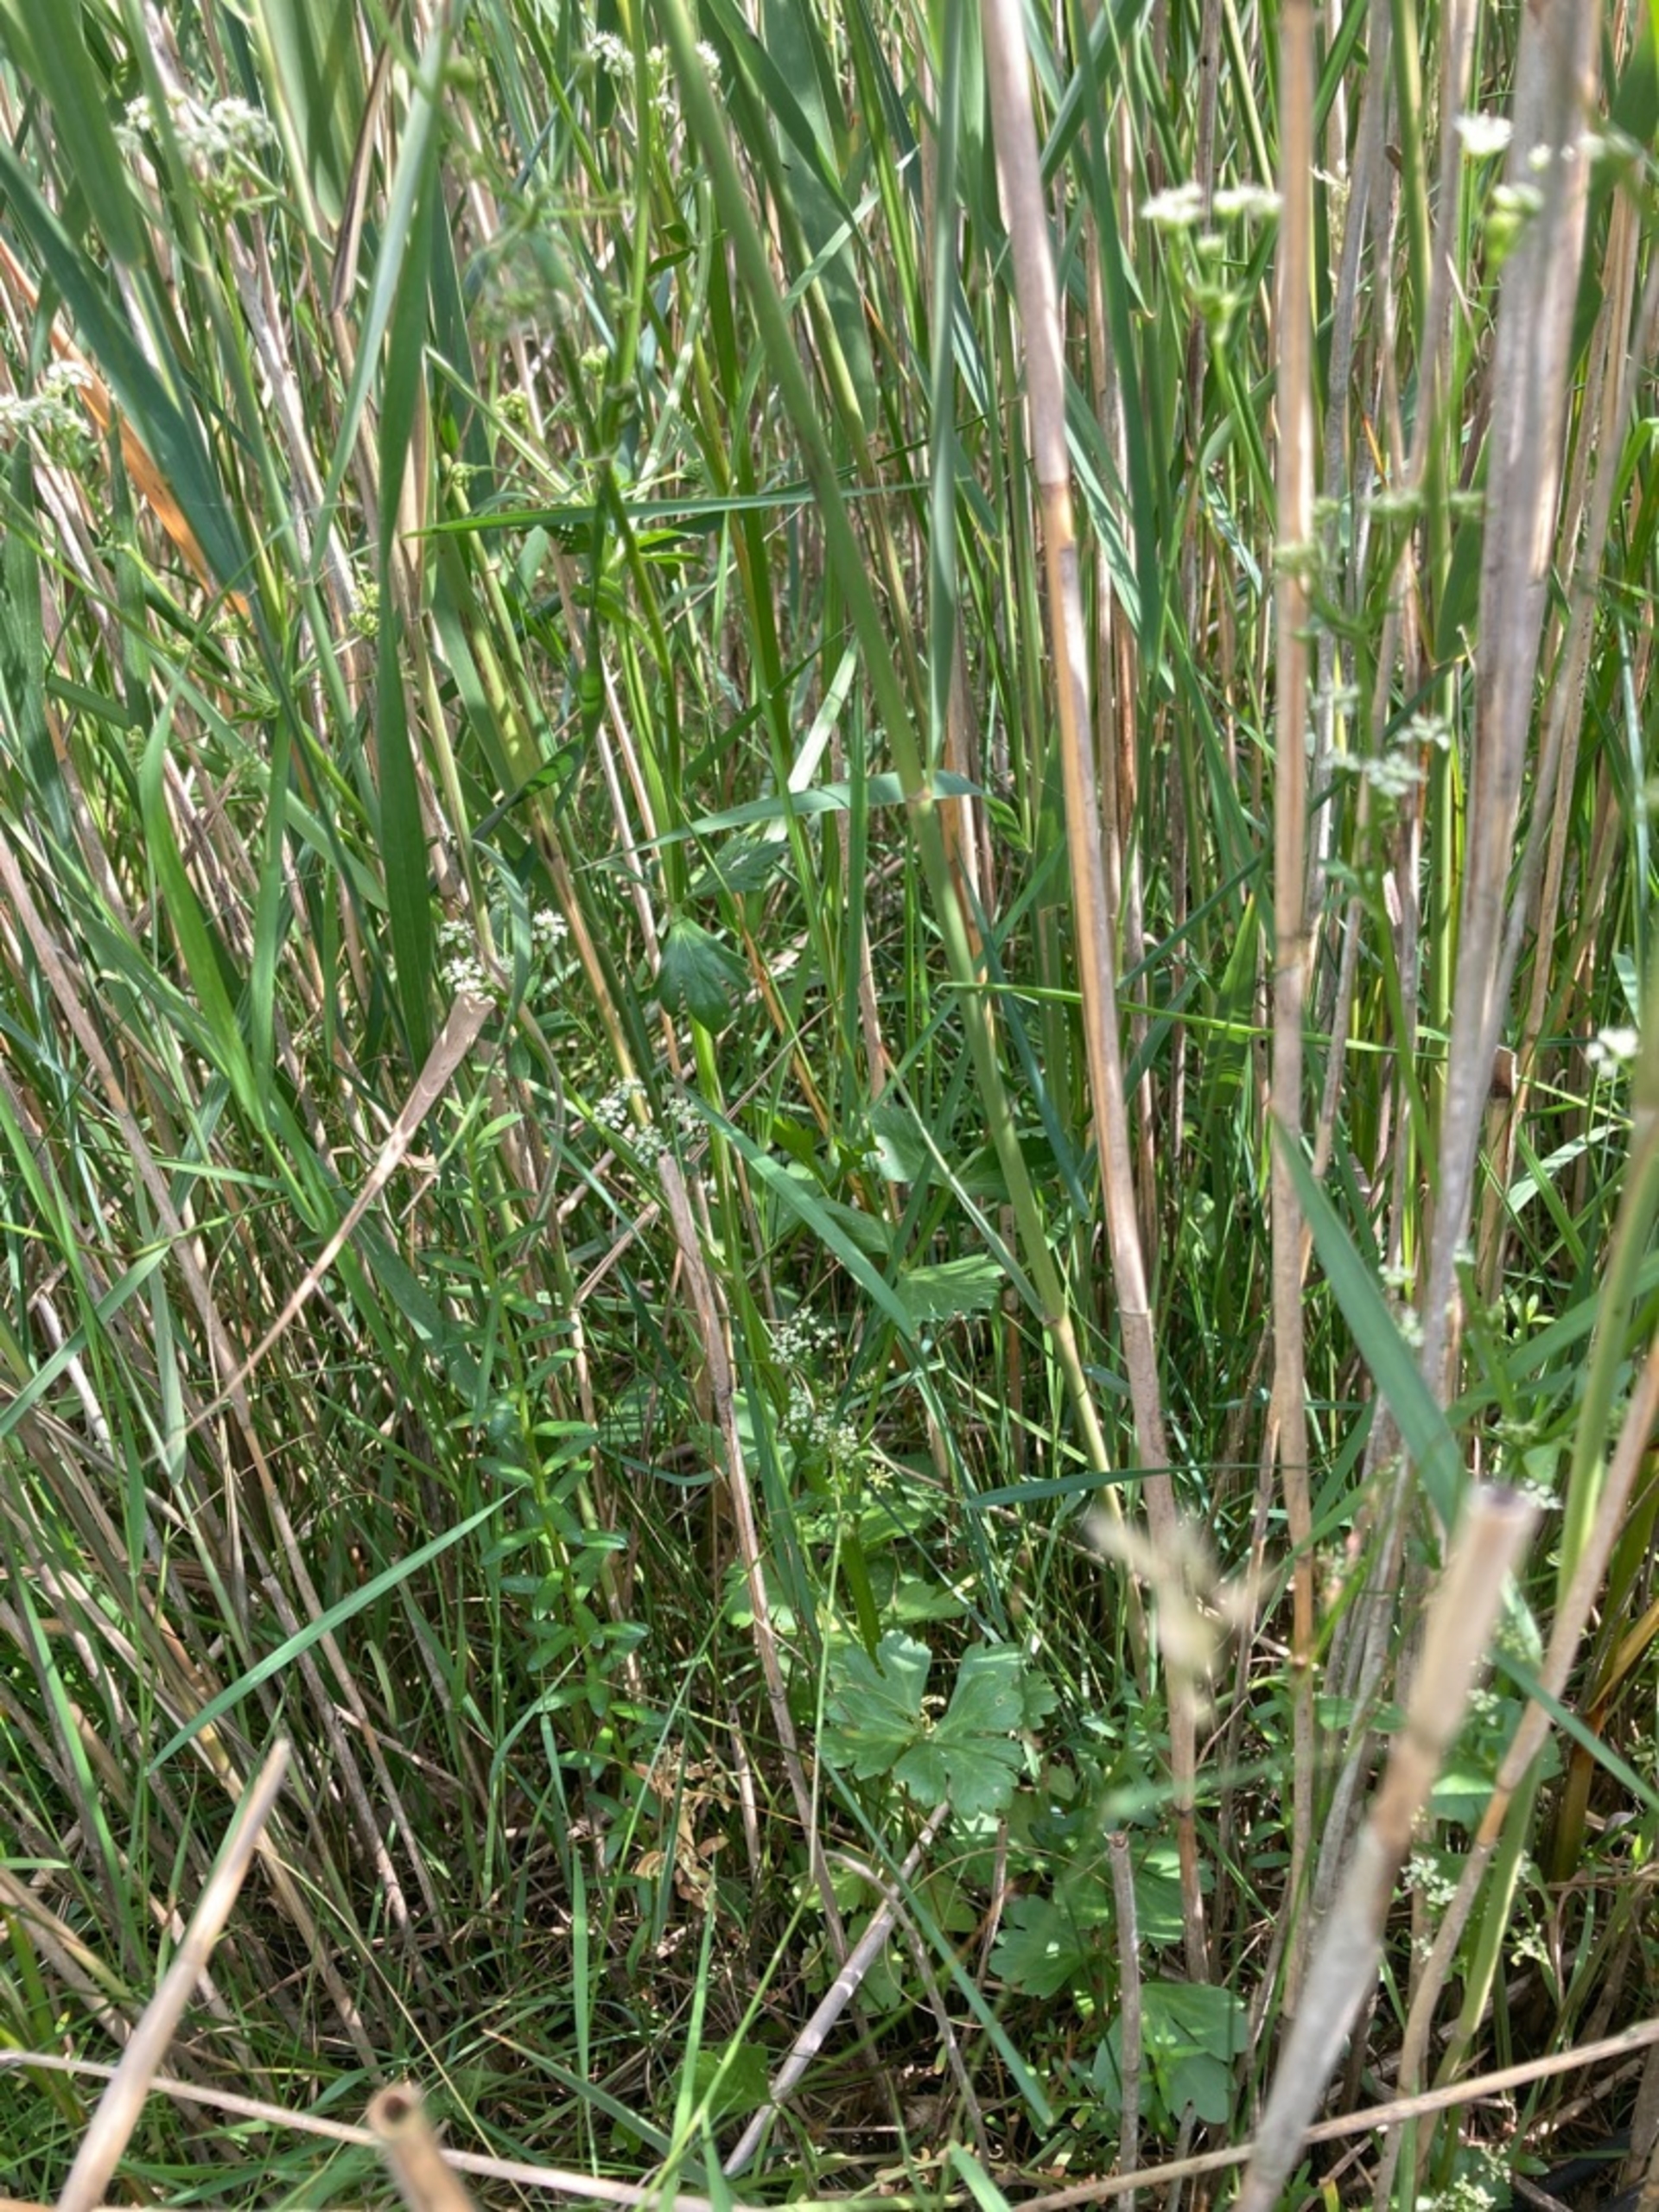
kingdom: Plantae
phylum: Tracheophyta
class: Magnoliopsida
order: Apiales
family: Apiaceae
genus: Apium
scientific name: Apium graveolens
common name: Vild selleri
